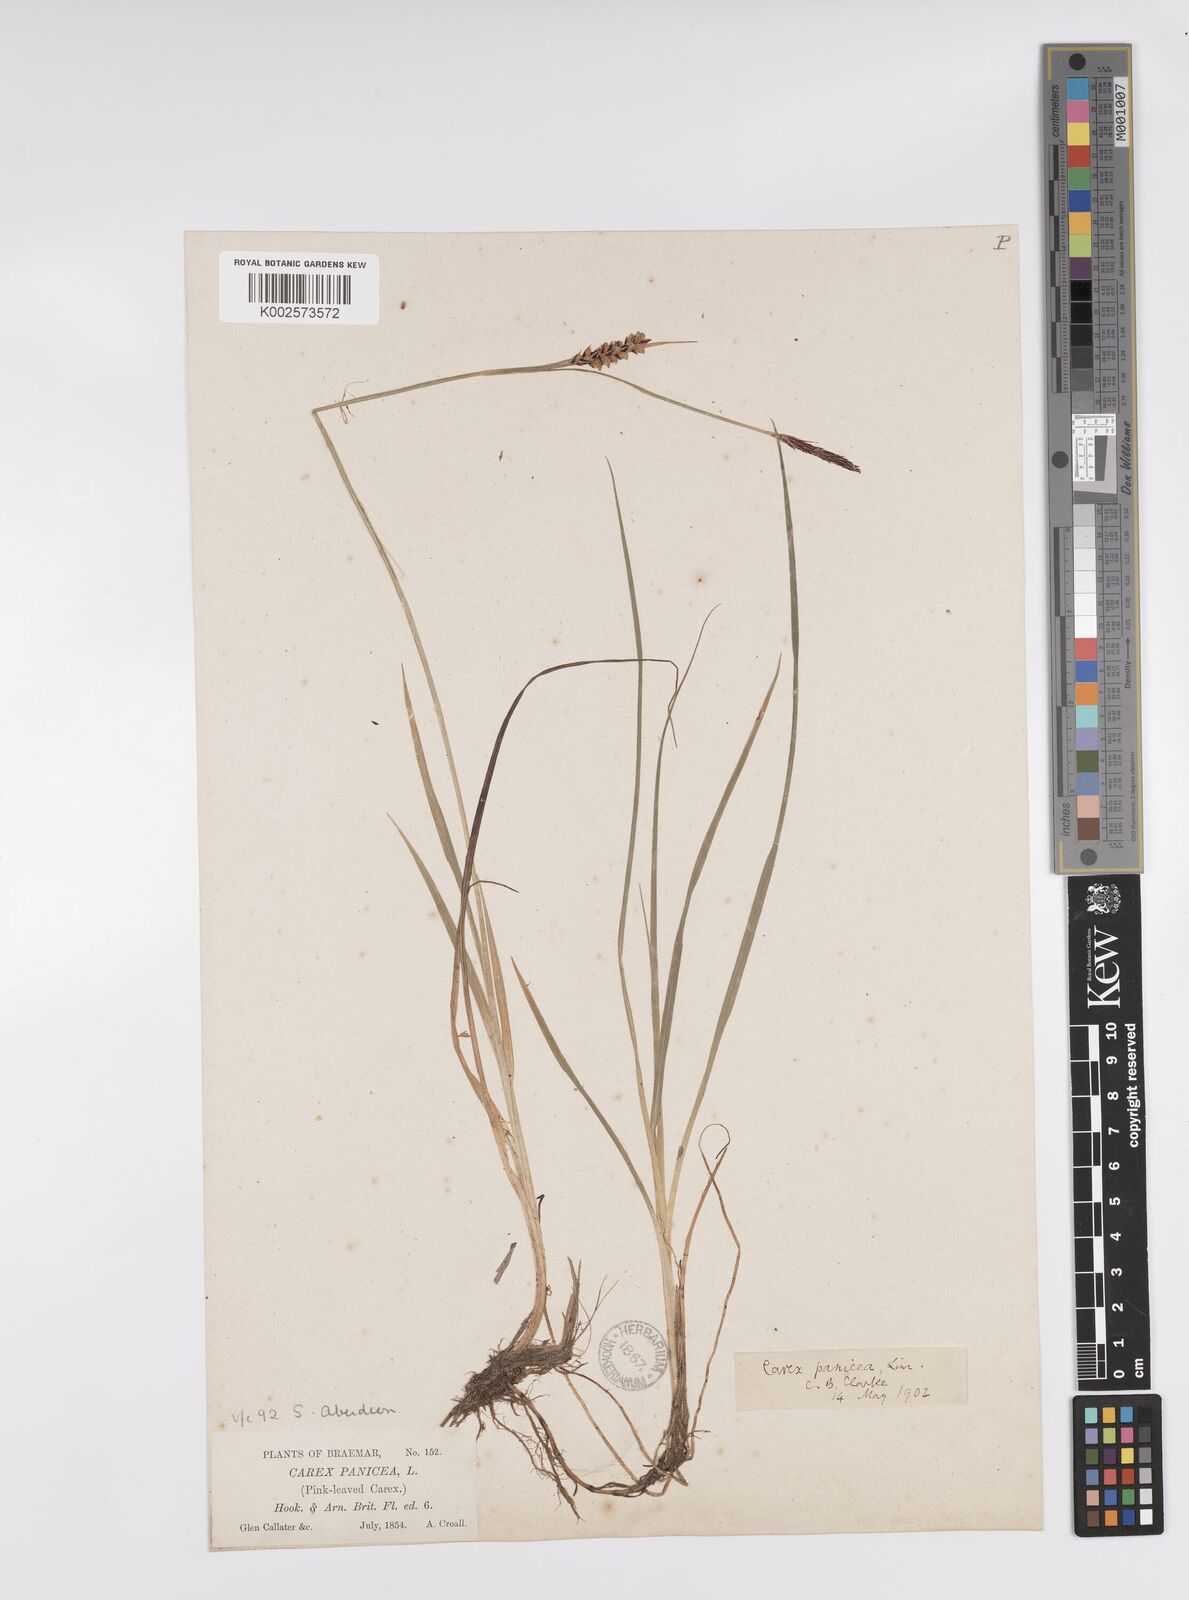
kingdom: Plantae
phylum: Tracheophyta
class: Liliopsida
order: Poales
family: Cyperaceae
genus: Carex
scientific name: Carex panicea
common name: Carnation sedge
